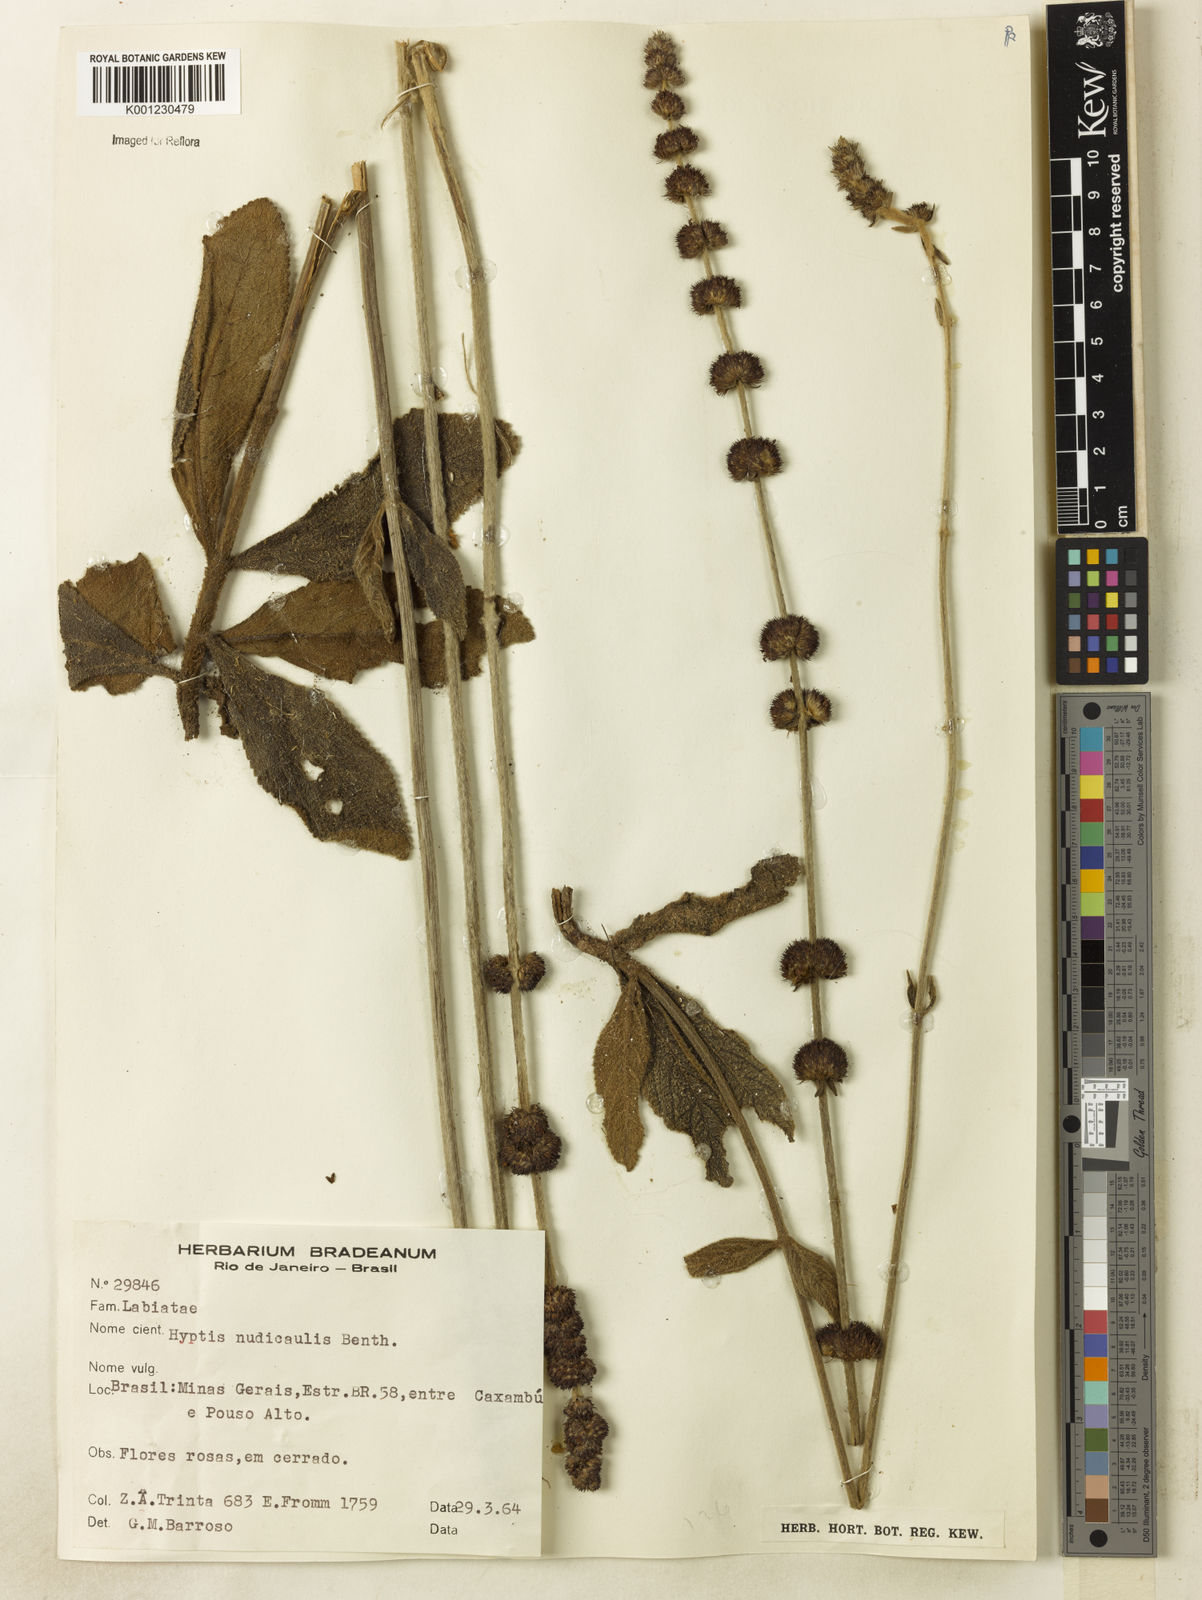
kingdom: Plantae
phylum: Tracheophyta
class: Magnoliopsida
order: Lamiales
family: Lamiaceae
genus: Hyptis
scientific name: Hyptis nudicaulis
